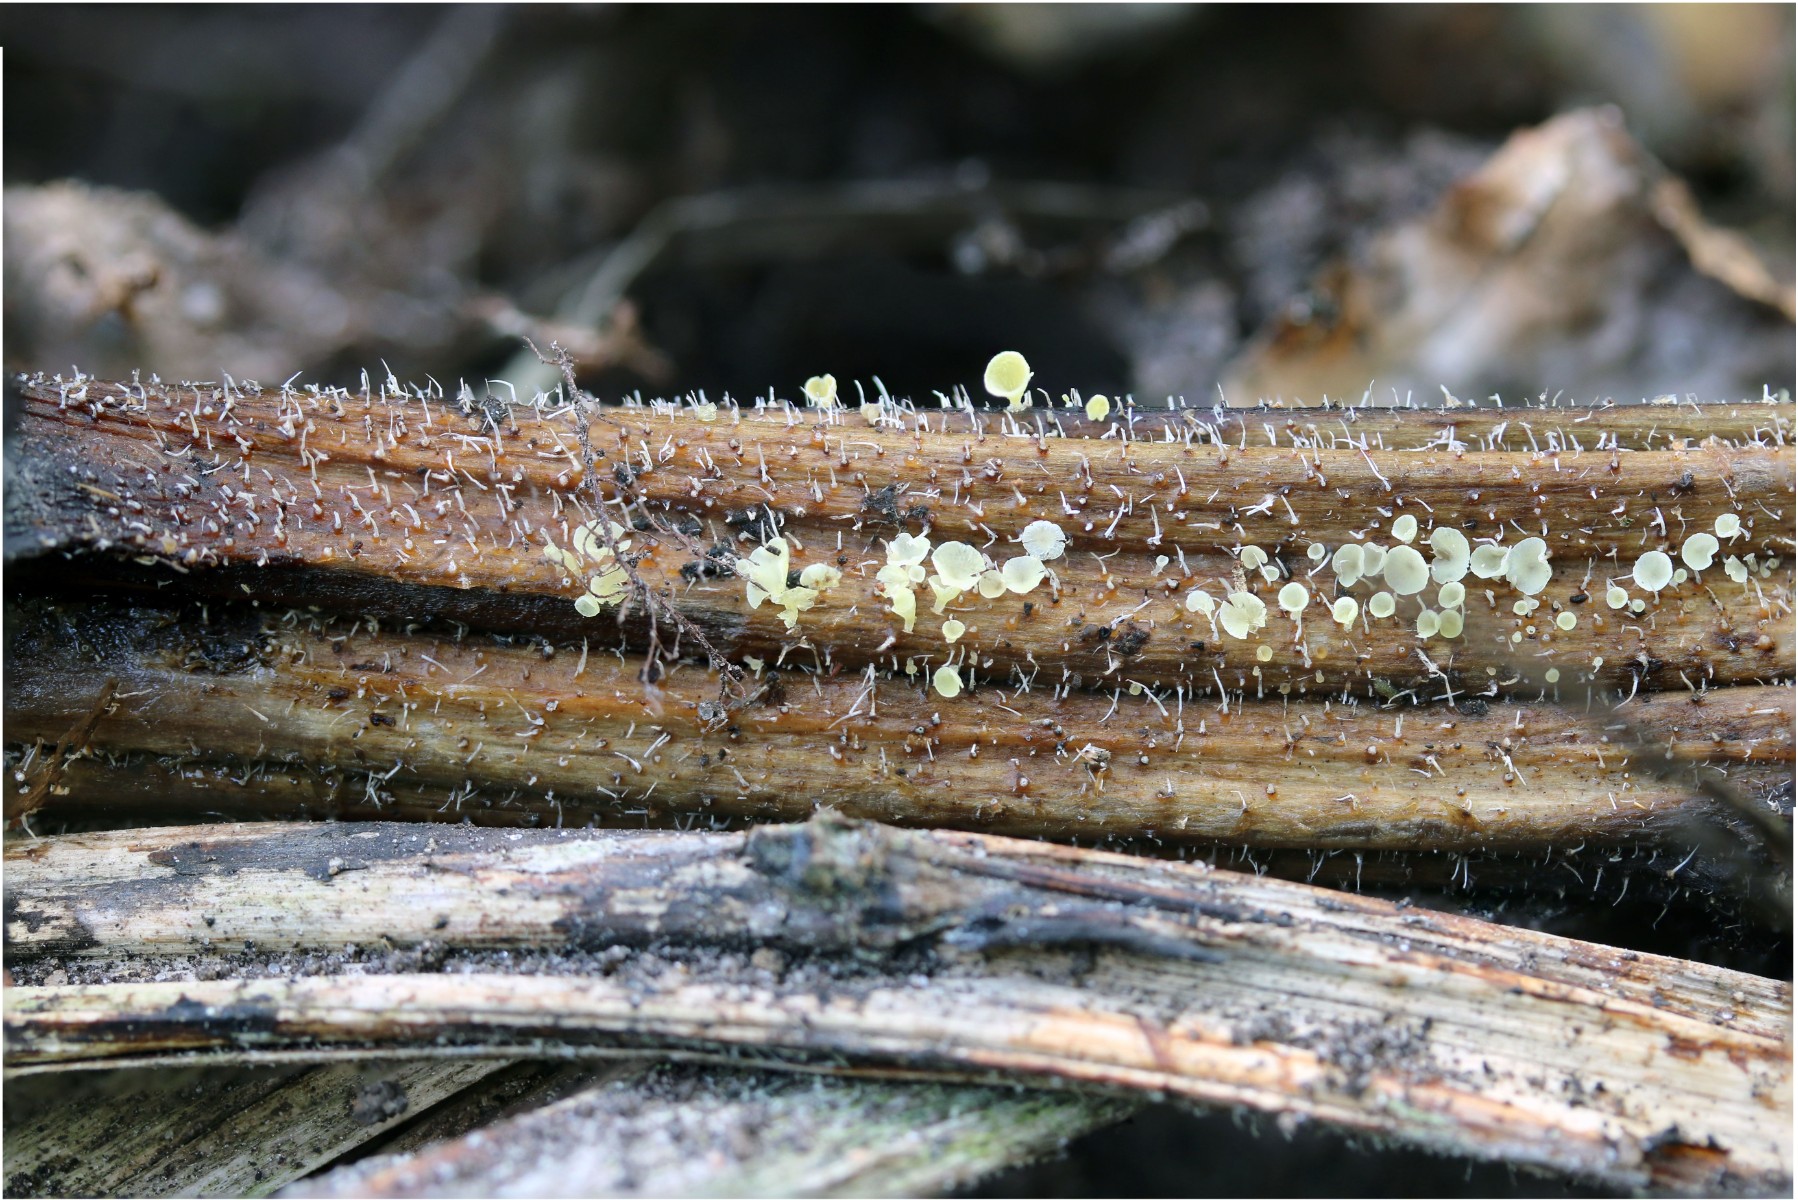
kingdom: Fungi
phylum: Basidiomycota
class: Agaricomycetes
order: Agaricales
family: Marasmiaceae
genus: Calyptella
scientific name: Calyptella campanula
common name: gul nældehue
